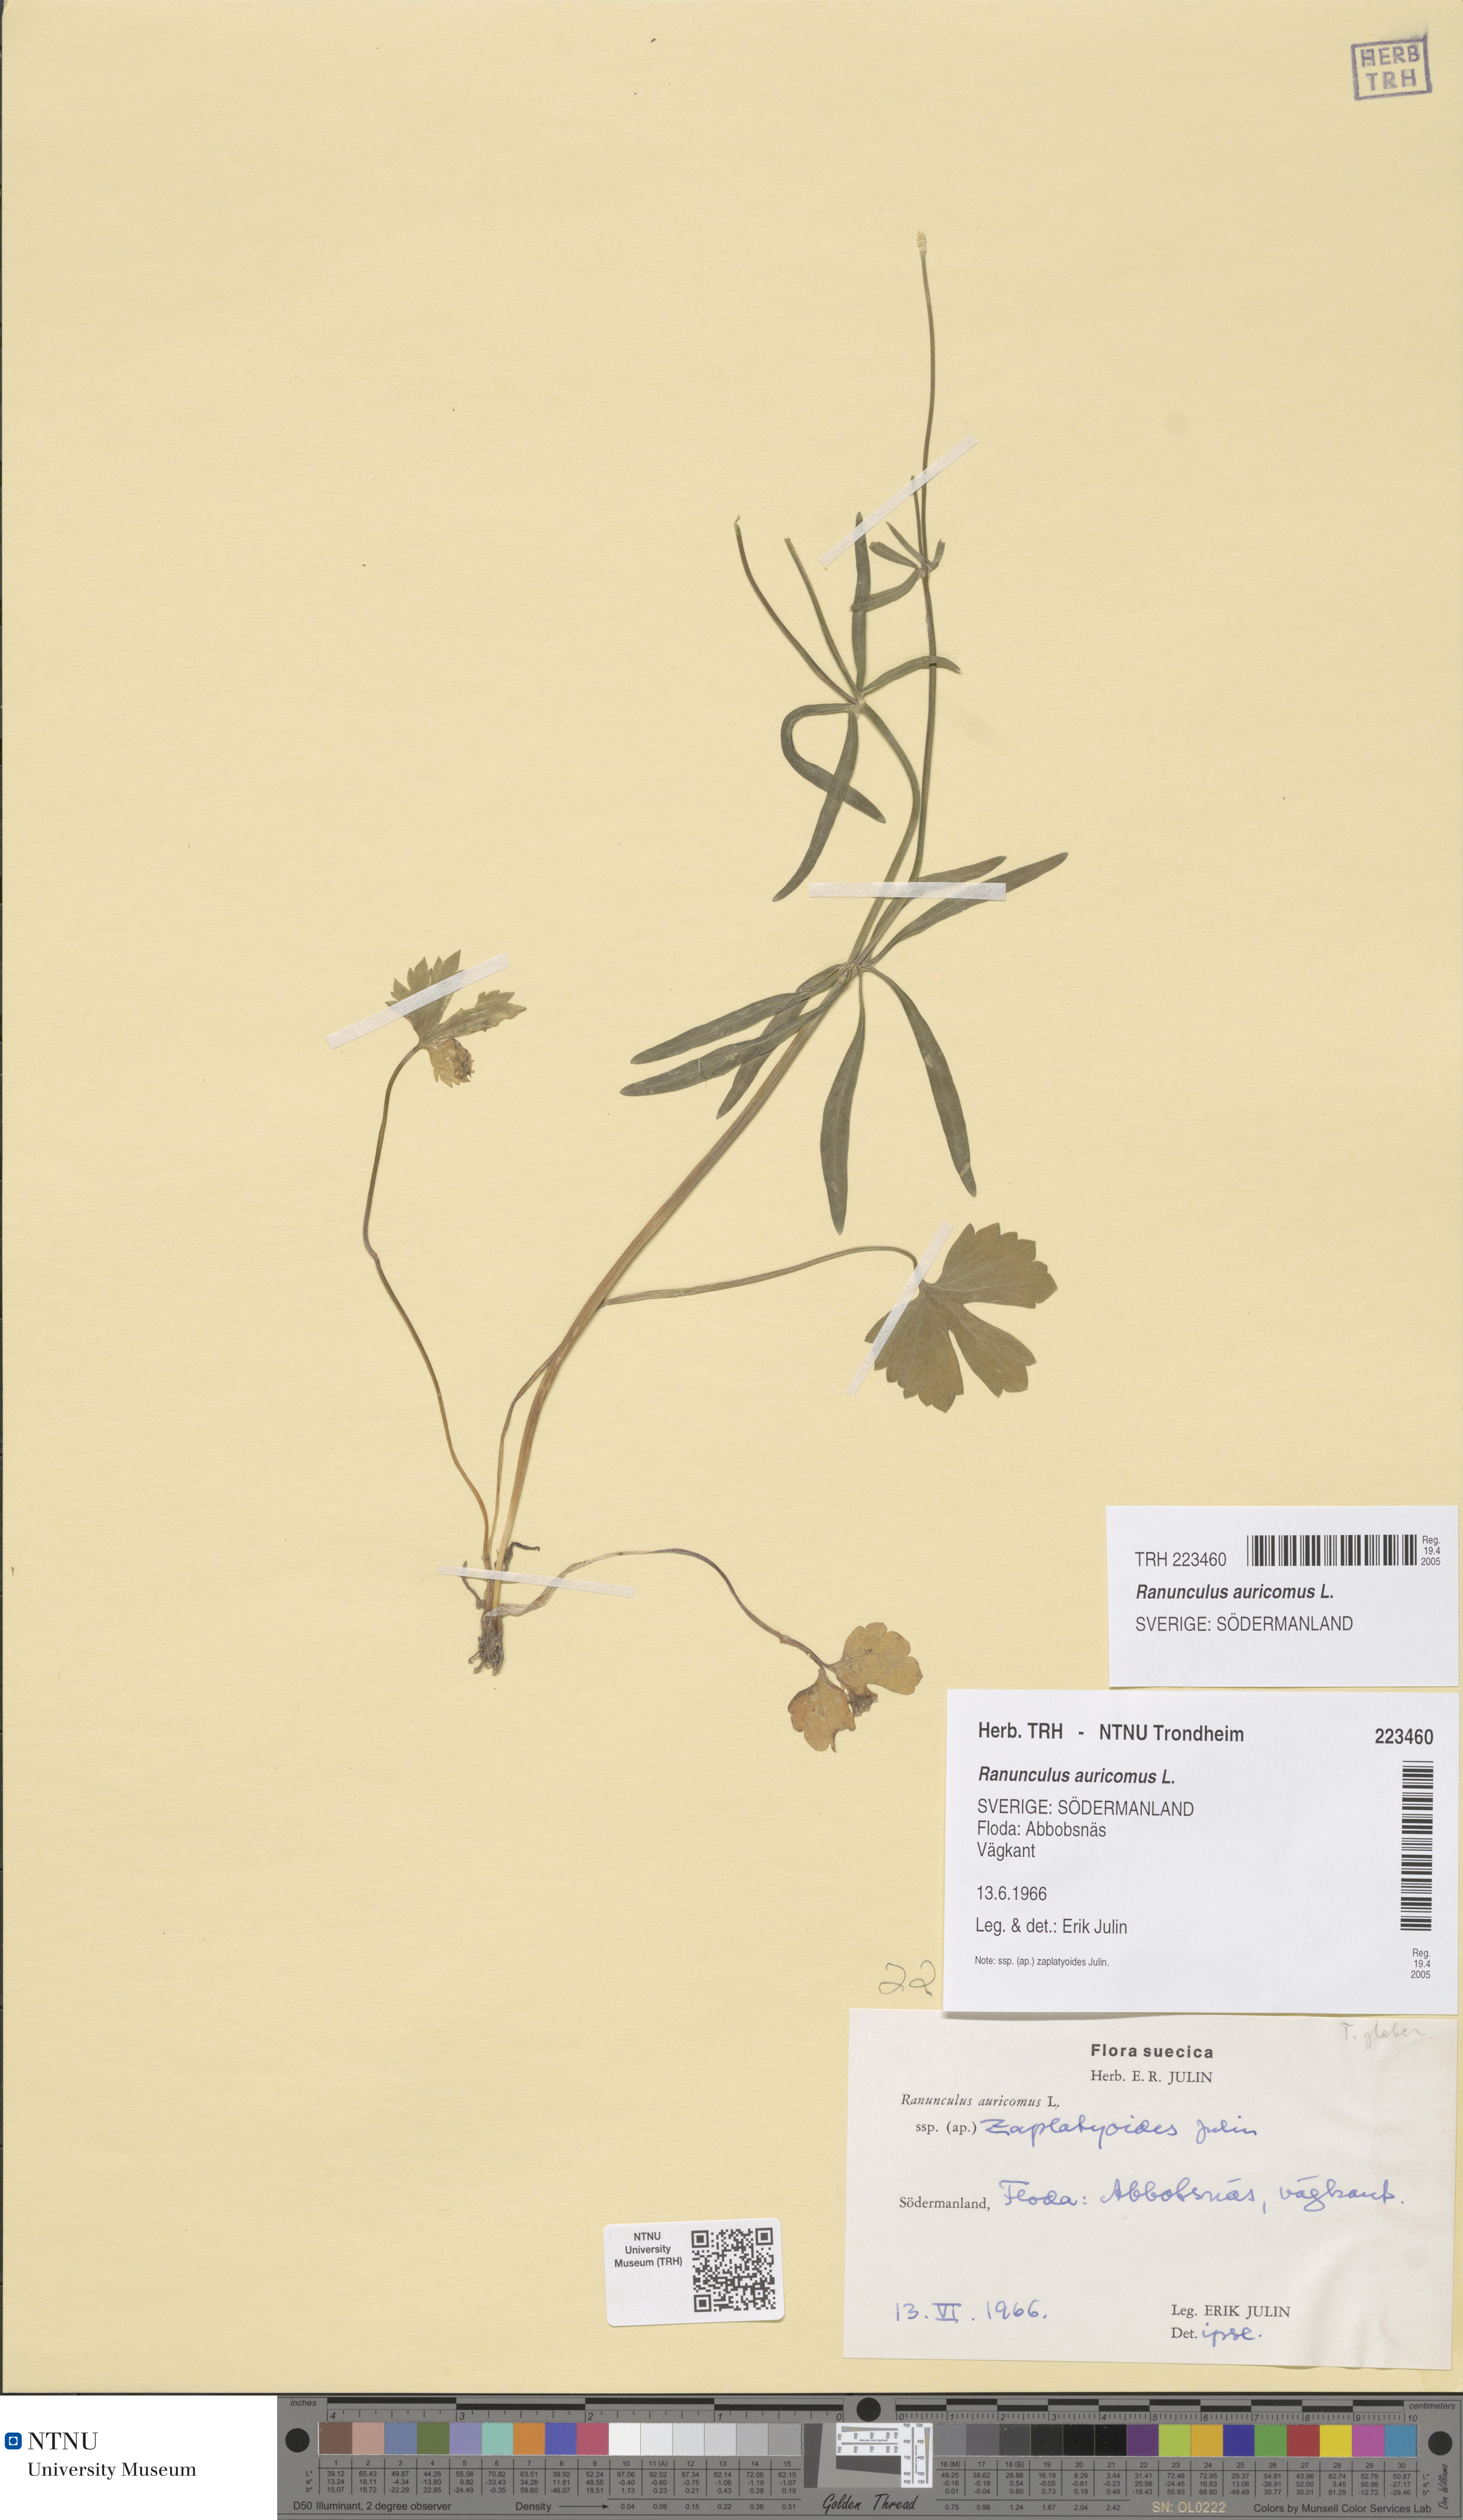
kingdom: Plantae
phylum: Tracheophyta
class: Magnoliopsida
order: Ranunculales
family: Ranunculaceae
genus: Ranunculus
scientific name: Ranunculus auricomus
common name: Goldilocks buttercup
